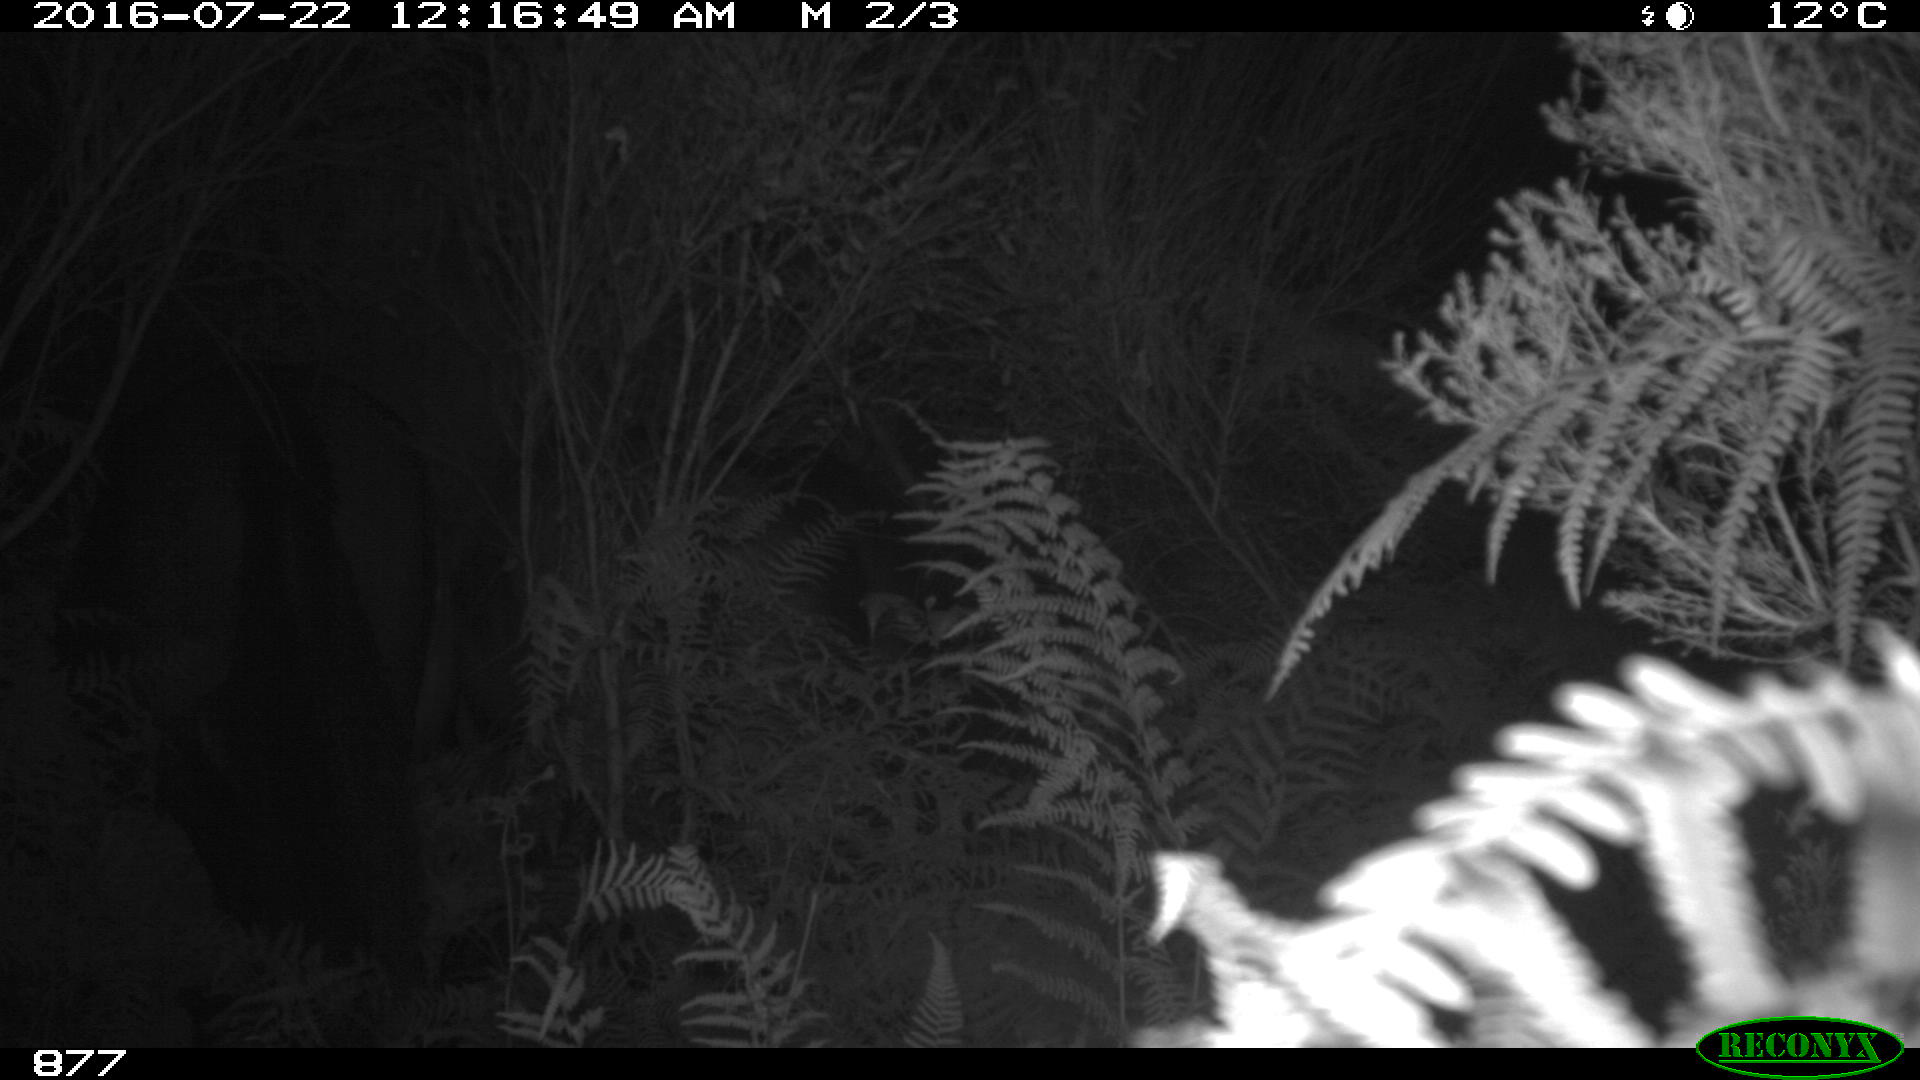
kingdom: Animalia
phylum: Chordata
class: Mammalia
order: Perissodactyla
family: Equidae
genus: Equus
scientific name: Equus caballus
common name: Horse
